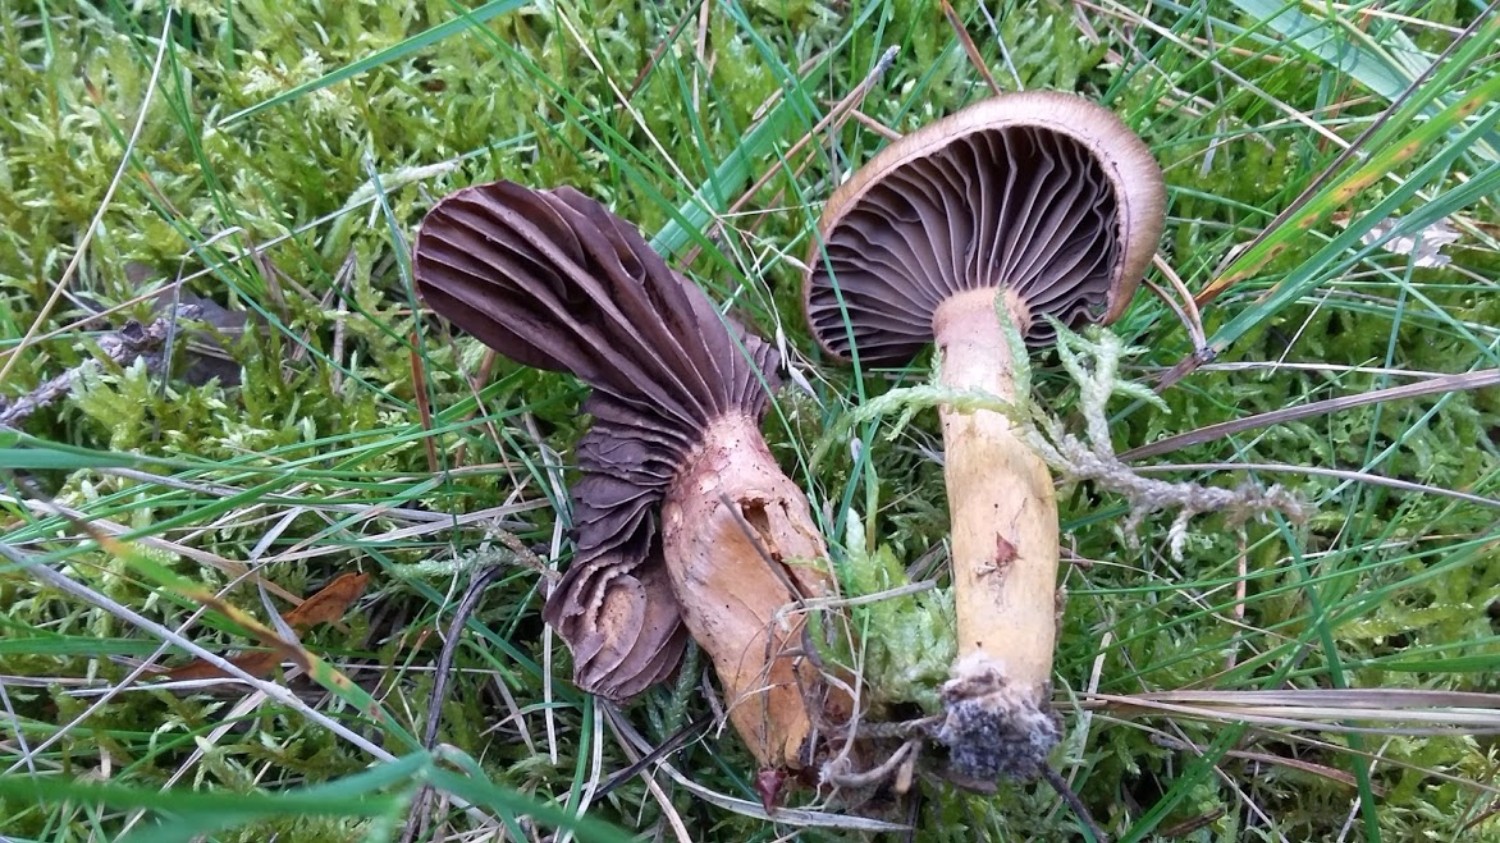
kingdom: Fungi
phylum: Basidiomycota
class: Agaricomycetes
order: Boletales
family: Gomphidiaceae
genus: Chroogomphus
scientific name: Chroogomphus rutilus
